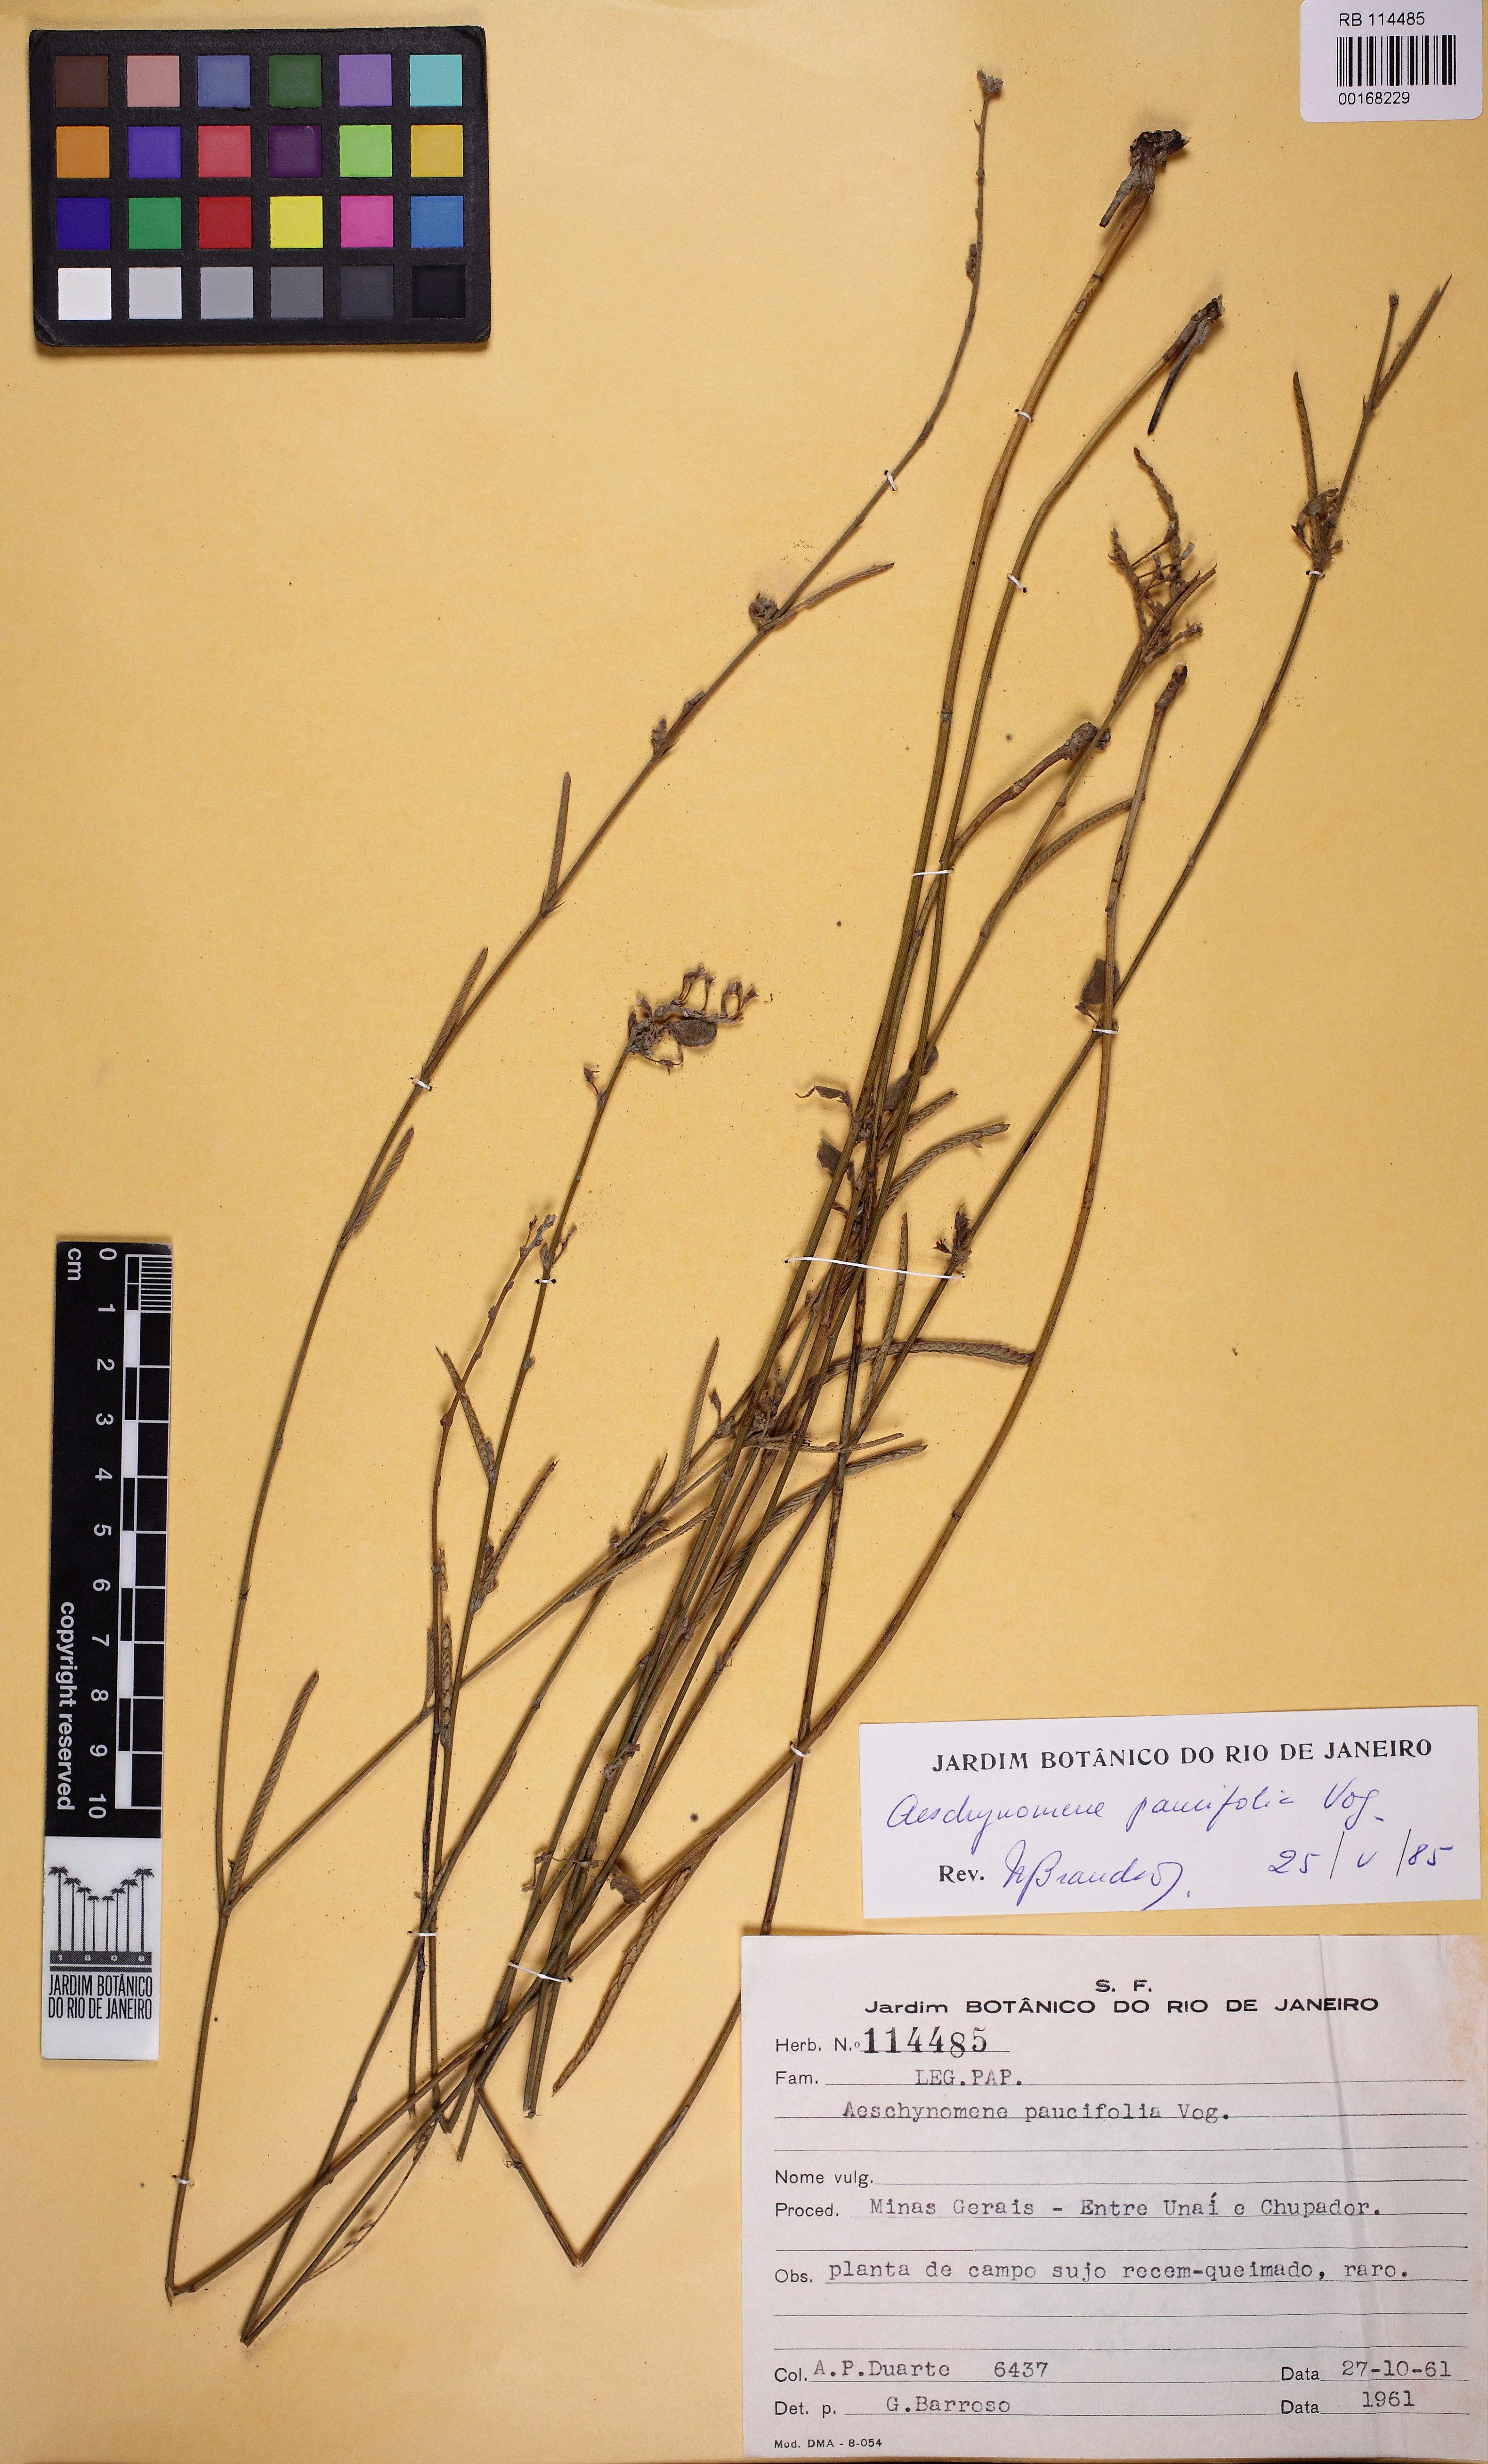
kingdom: Plantae
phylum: Tracheophyta
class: Magnoliopsida
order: Fabales
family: Fabaceae
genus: Ctenodon
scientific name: Ctenodon paucifolius
